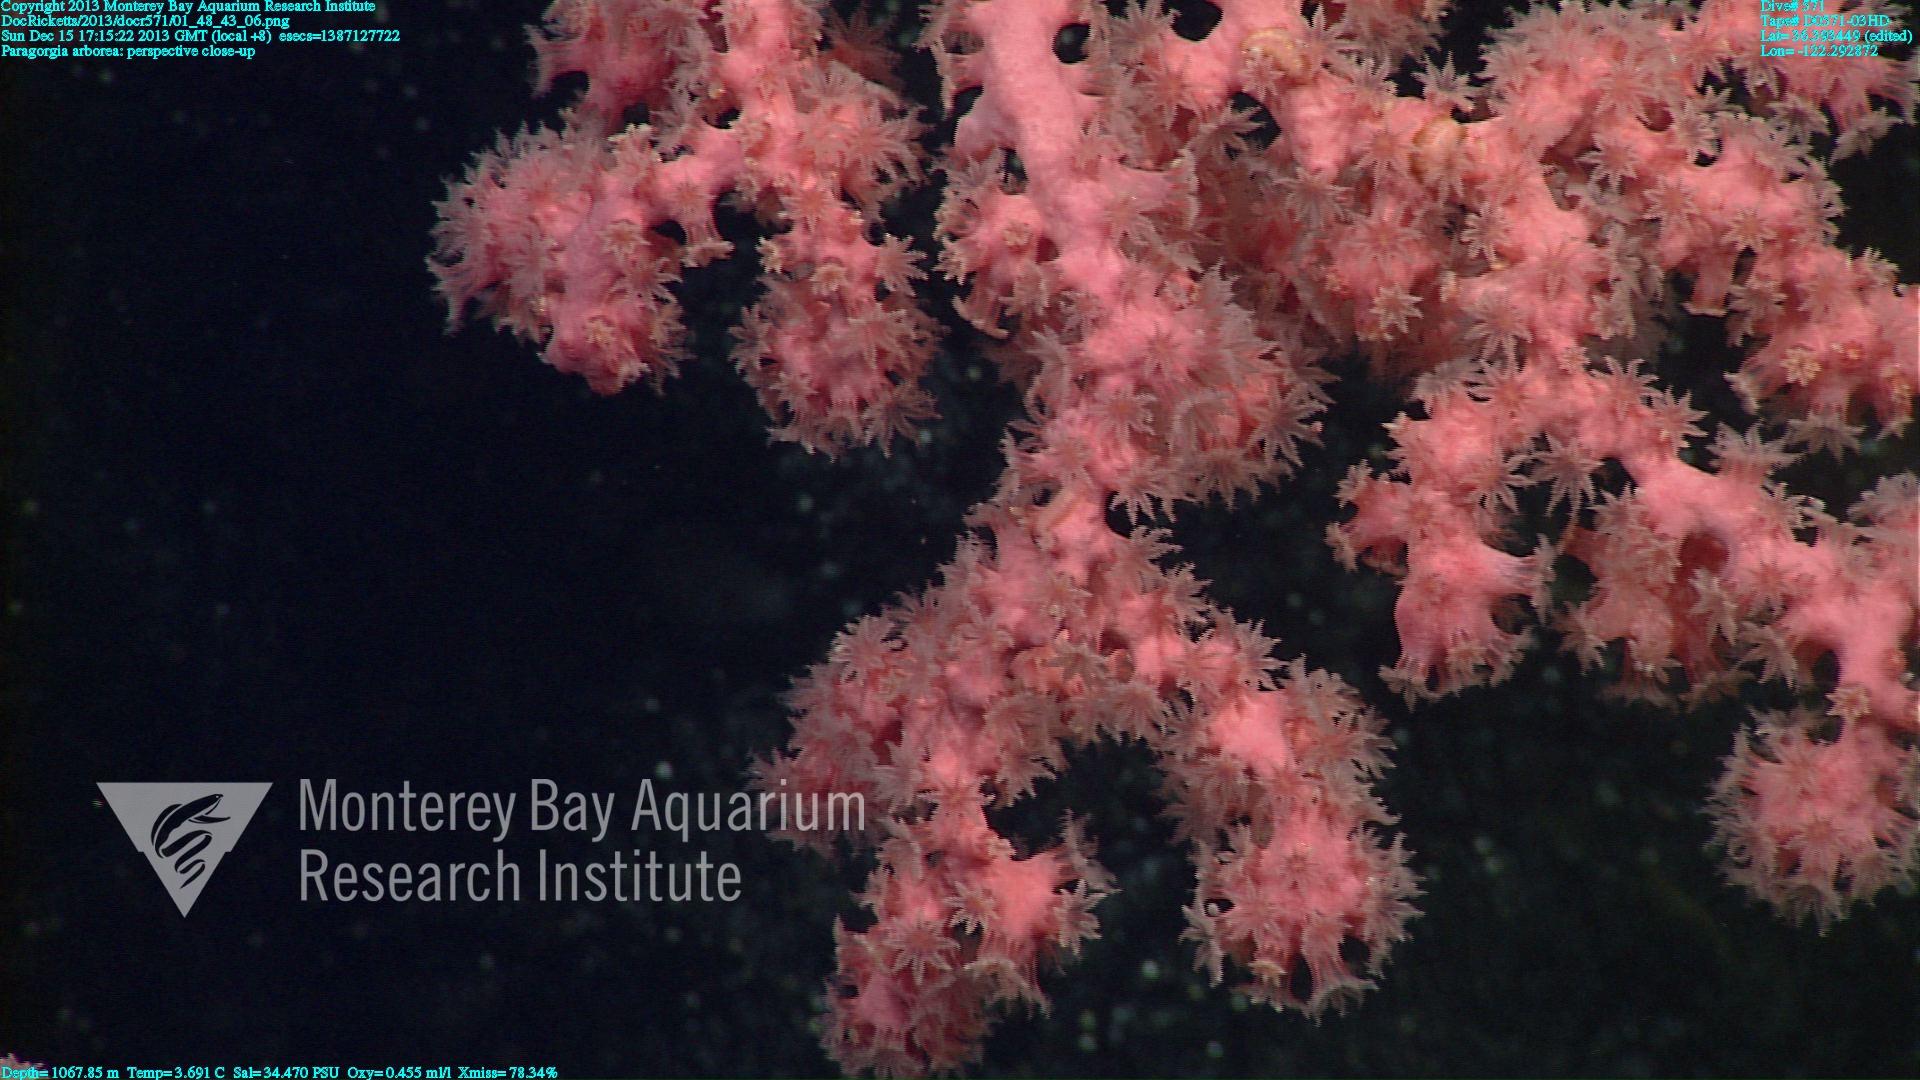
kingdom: Animalia
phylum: Cnidaria
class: Anthozoa
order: Scleralcyonacea
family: Coralliidae
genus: Paragorgia
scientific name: Paragorgia arborea
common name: Bubble gum coral
